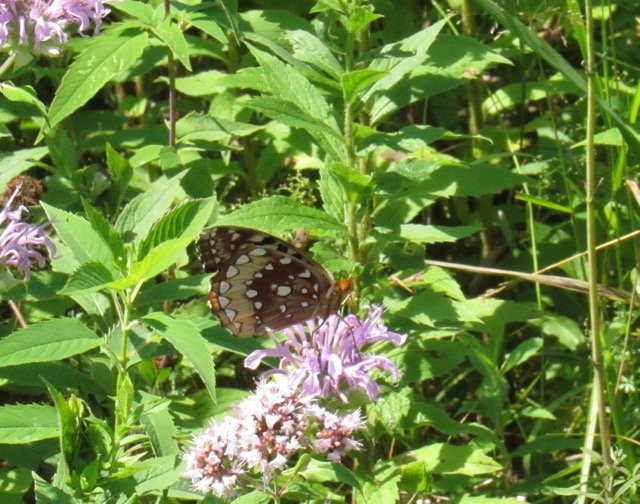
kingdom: Animalia
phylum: Arthropoda
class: Insecta
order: Lepidoptera
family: Nymphalidae
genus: Speyeria
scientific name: Speyeria cybele
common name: Great Spangled Fritillary
